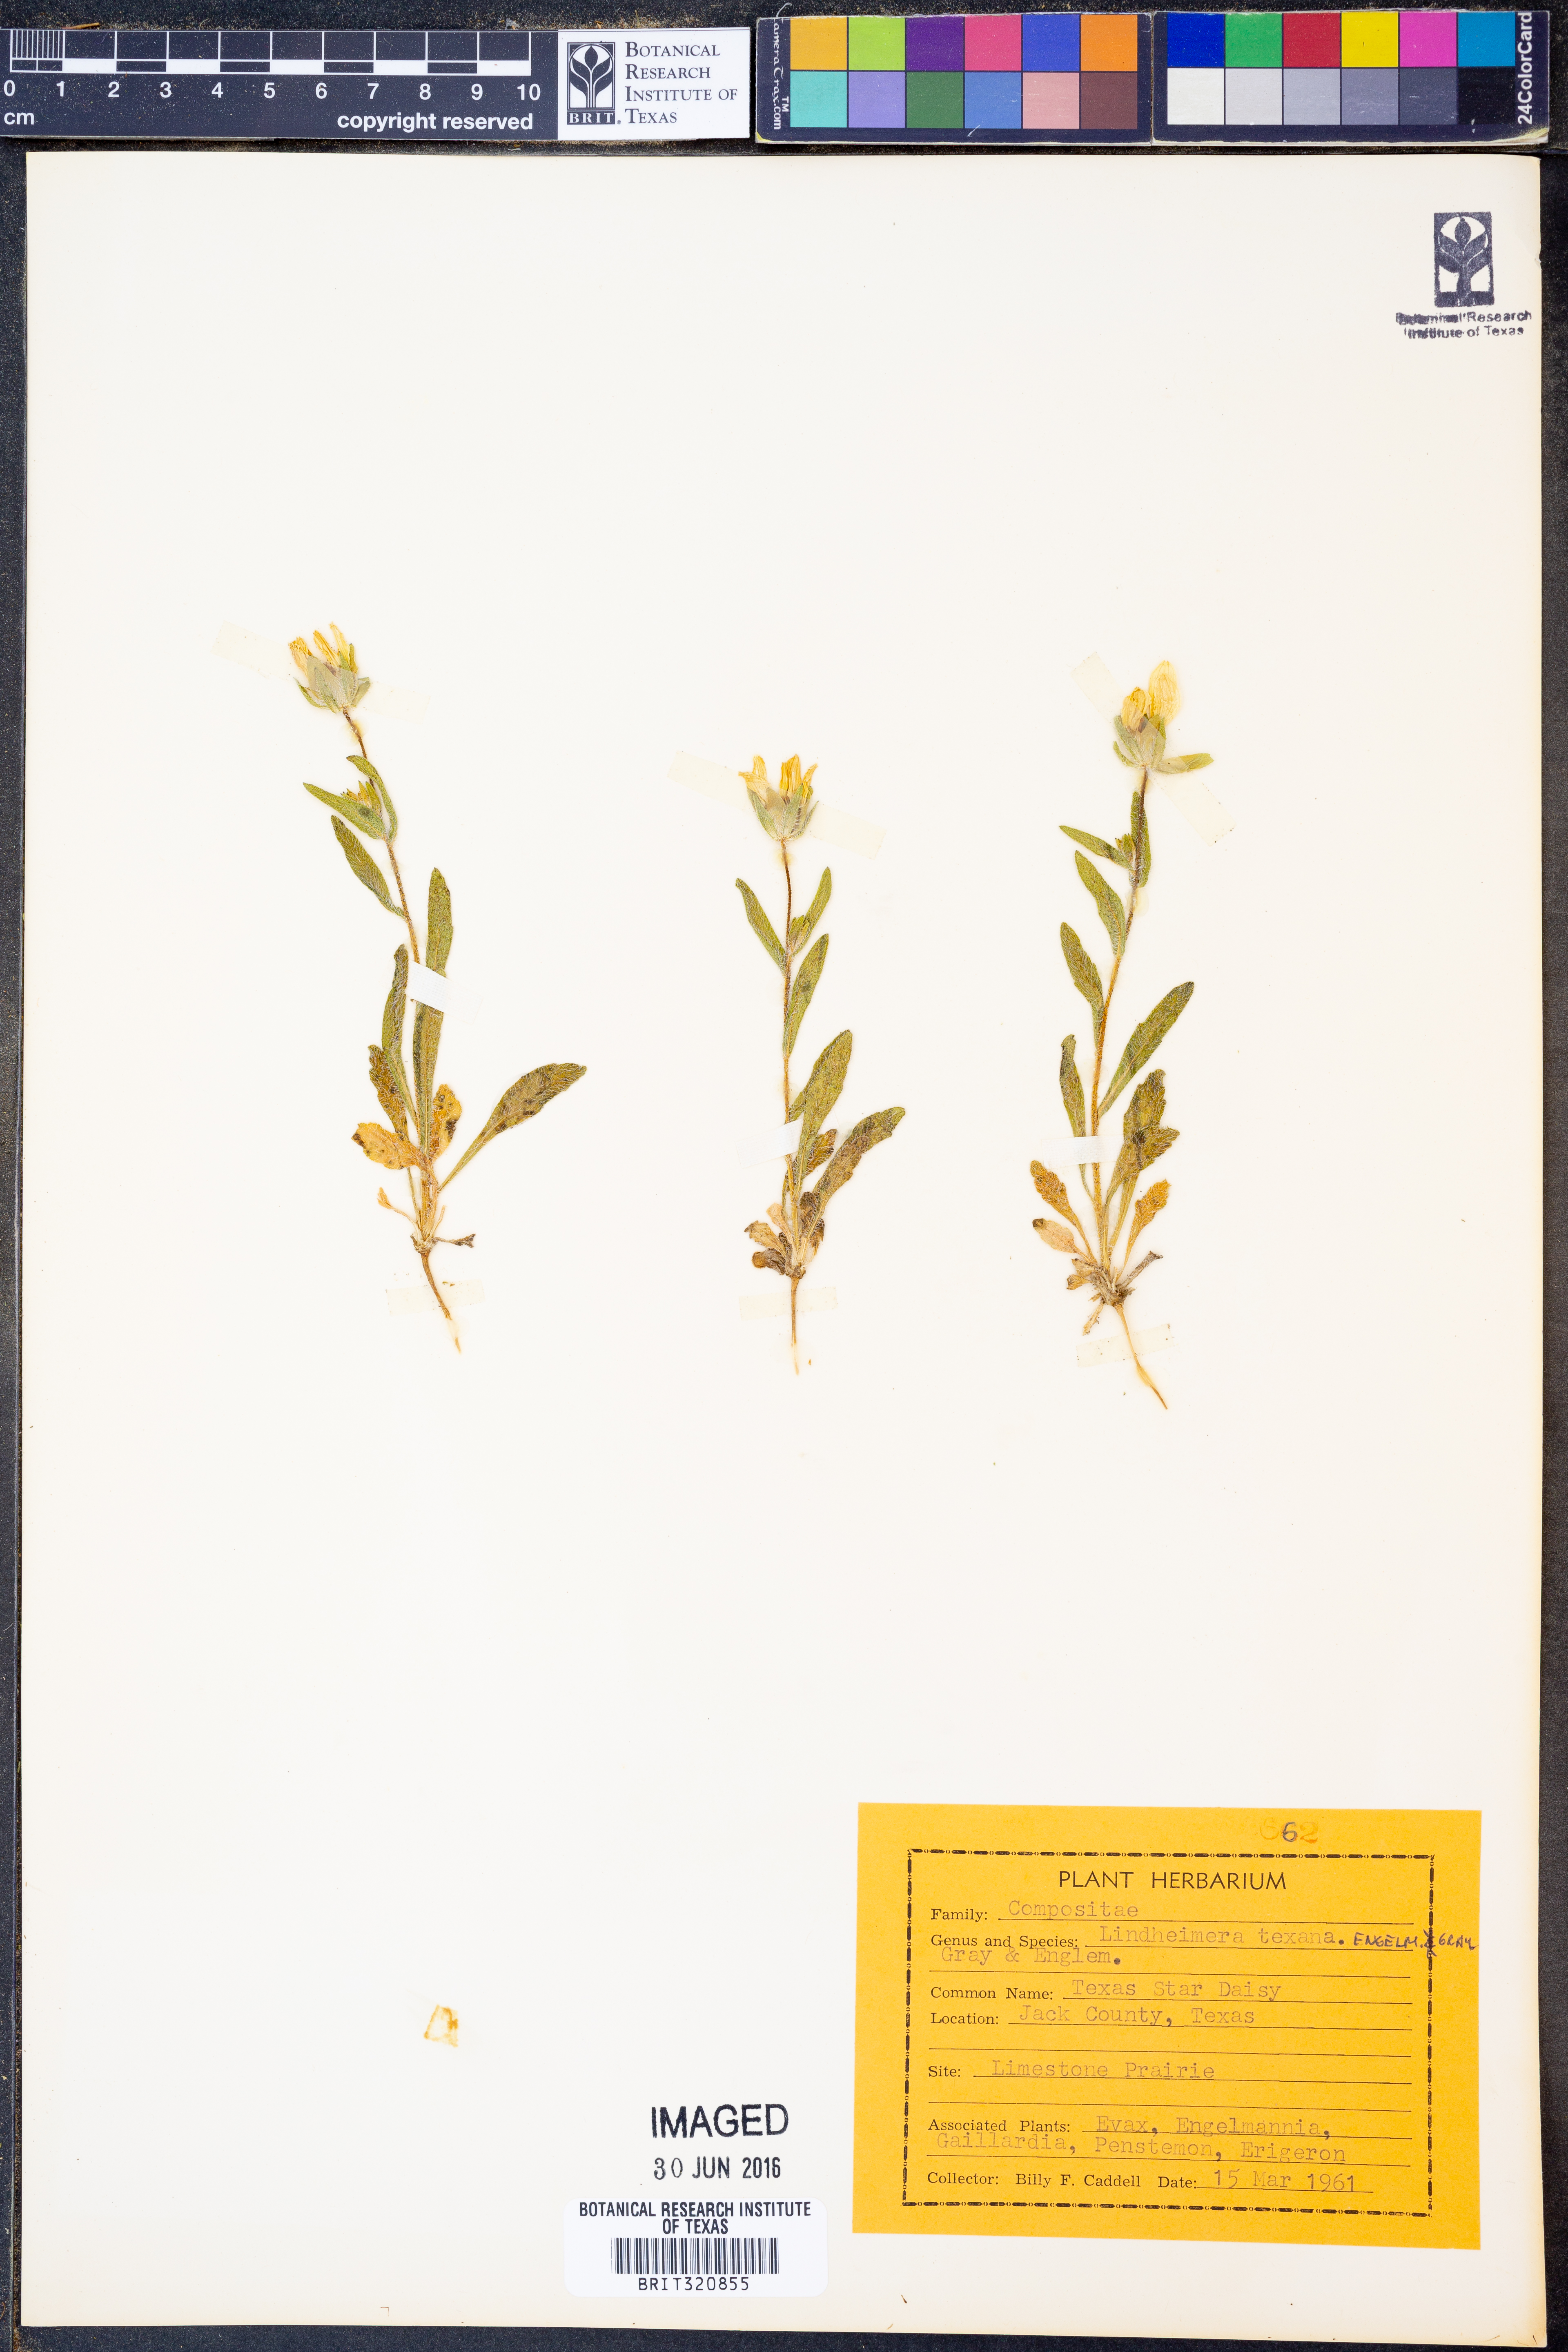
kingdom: Plantae
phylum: Tracheophyta
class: Magnoliopsida
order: Asterales
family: Asteraceae
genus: Lindheimera
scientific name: Lindheimera texana
